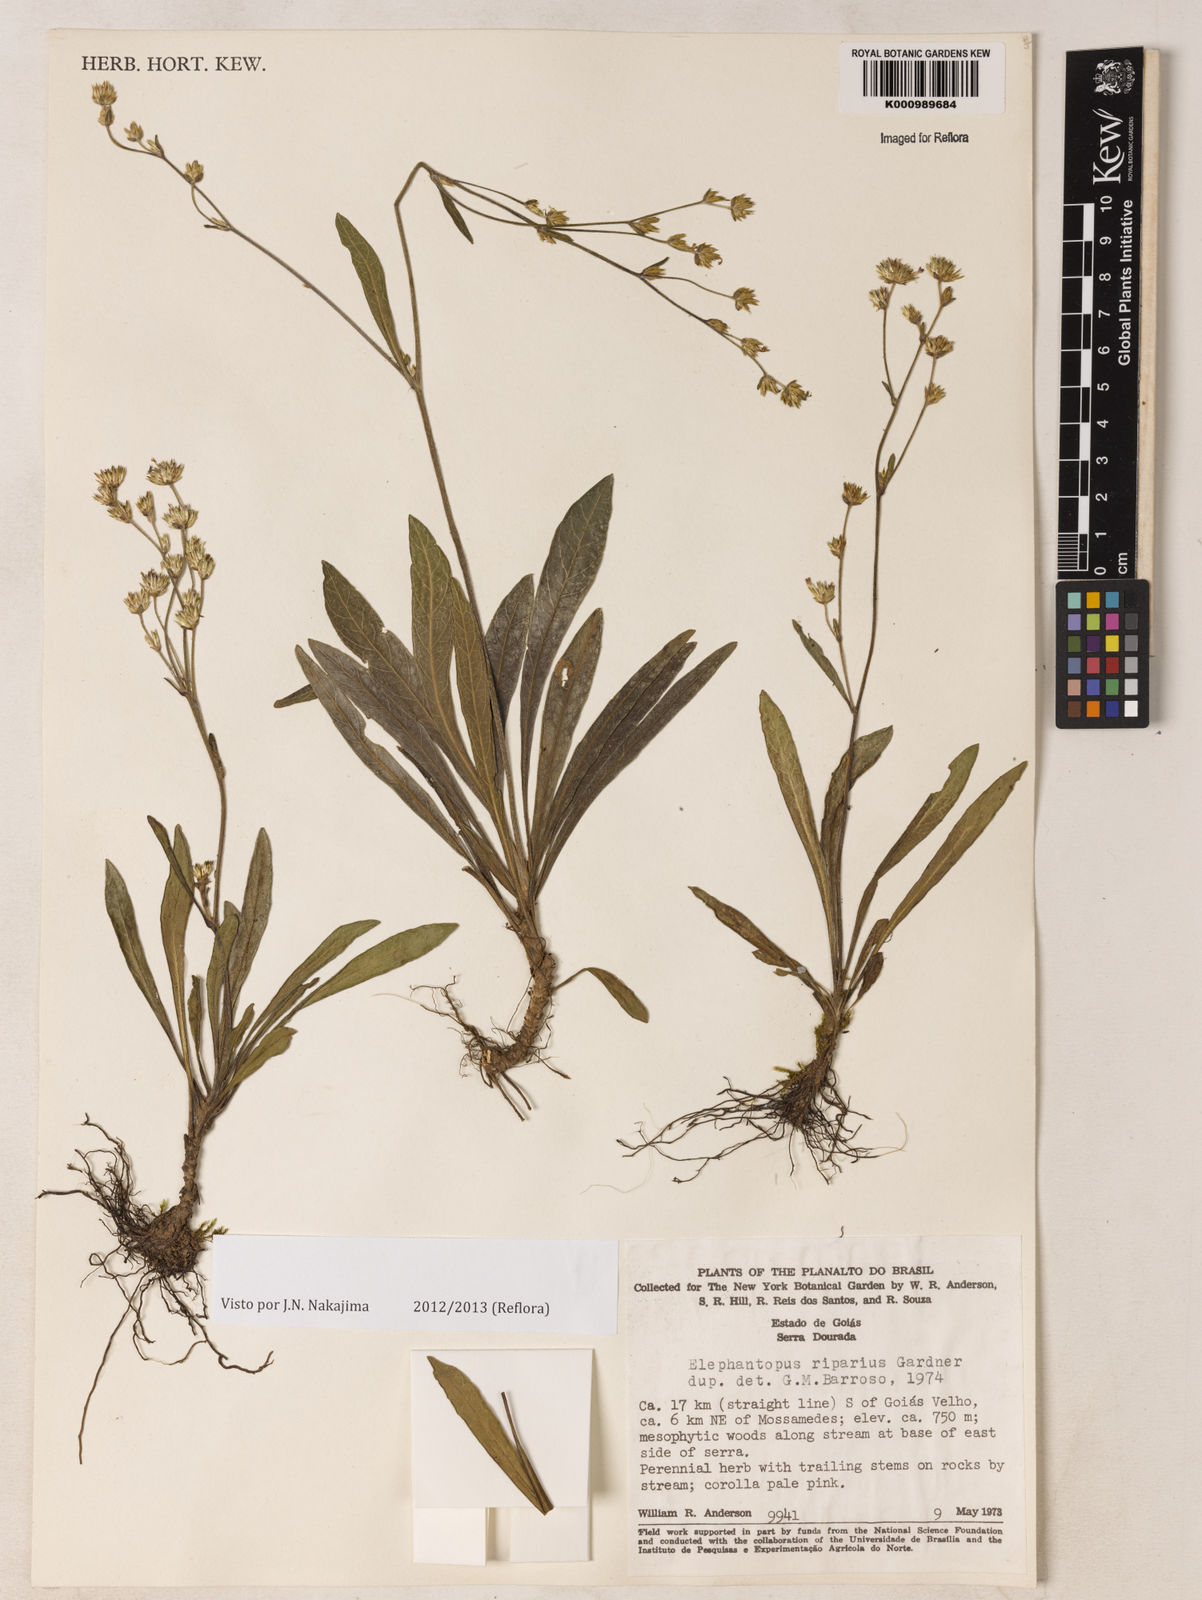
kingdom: Plantae
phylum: Tracheophyta
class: Magnoliopsida
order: Asterales
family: Asteraceae
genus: Elephantopus
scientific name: Elephantopus riparius
